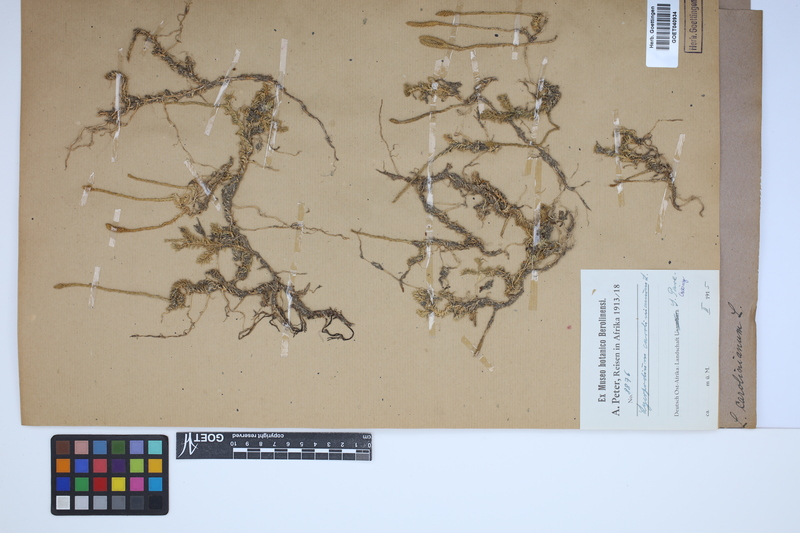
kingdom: Plantae
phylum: Tracheophyta
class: Lycopodiopsida
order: Lycopodiales
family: Lycopodiaceae
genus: Brownseya
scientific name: Brownseya serpentina
